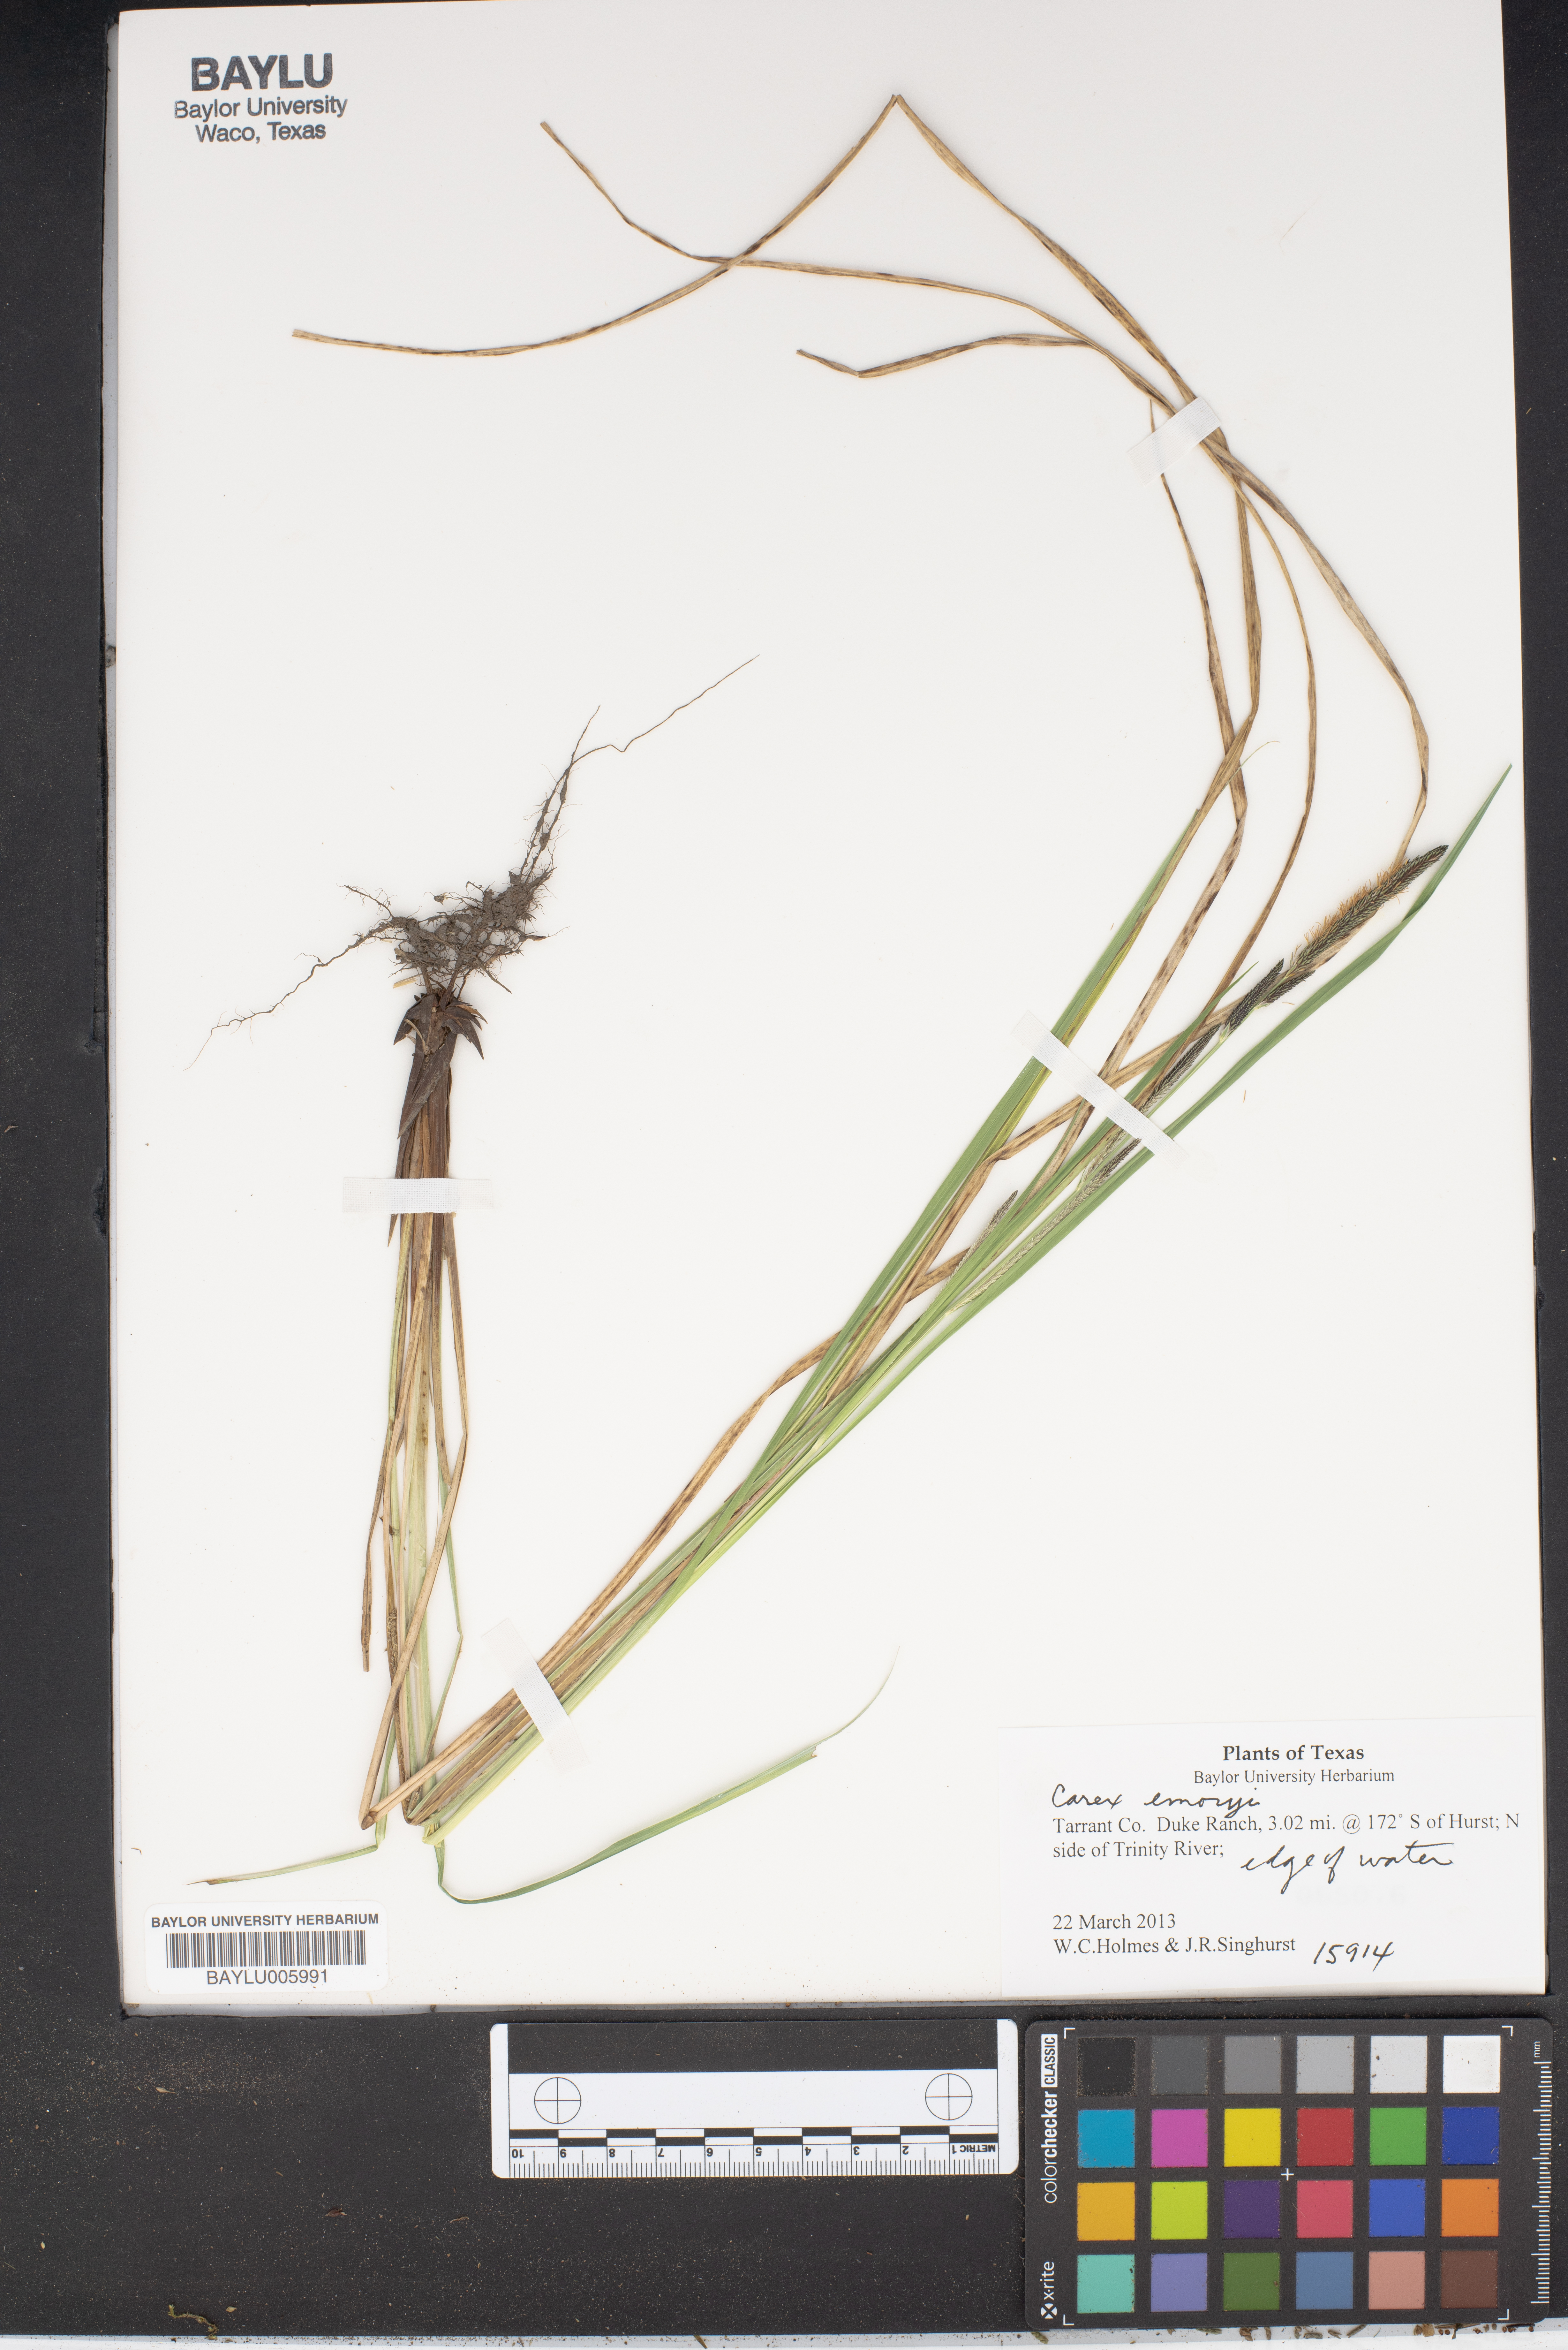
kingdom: Plantae
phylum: Tracheophyta
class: Liliopsida
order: Poales
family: Cyperaceae
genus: Carex
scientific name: Carex emoryi
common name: Emory's sedge
